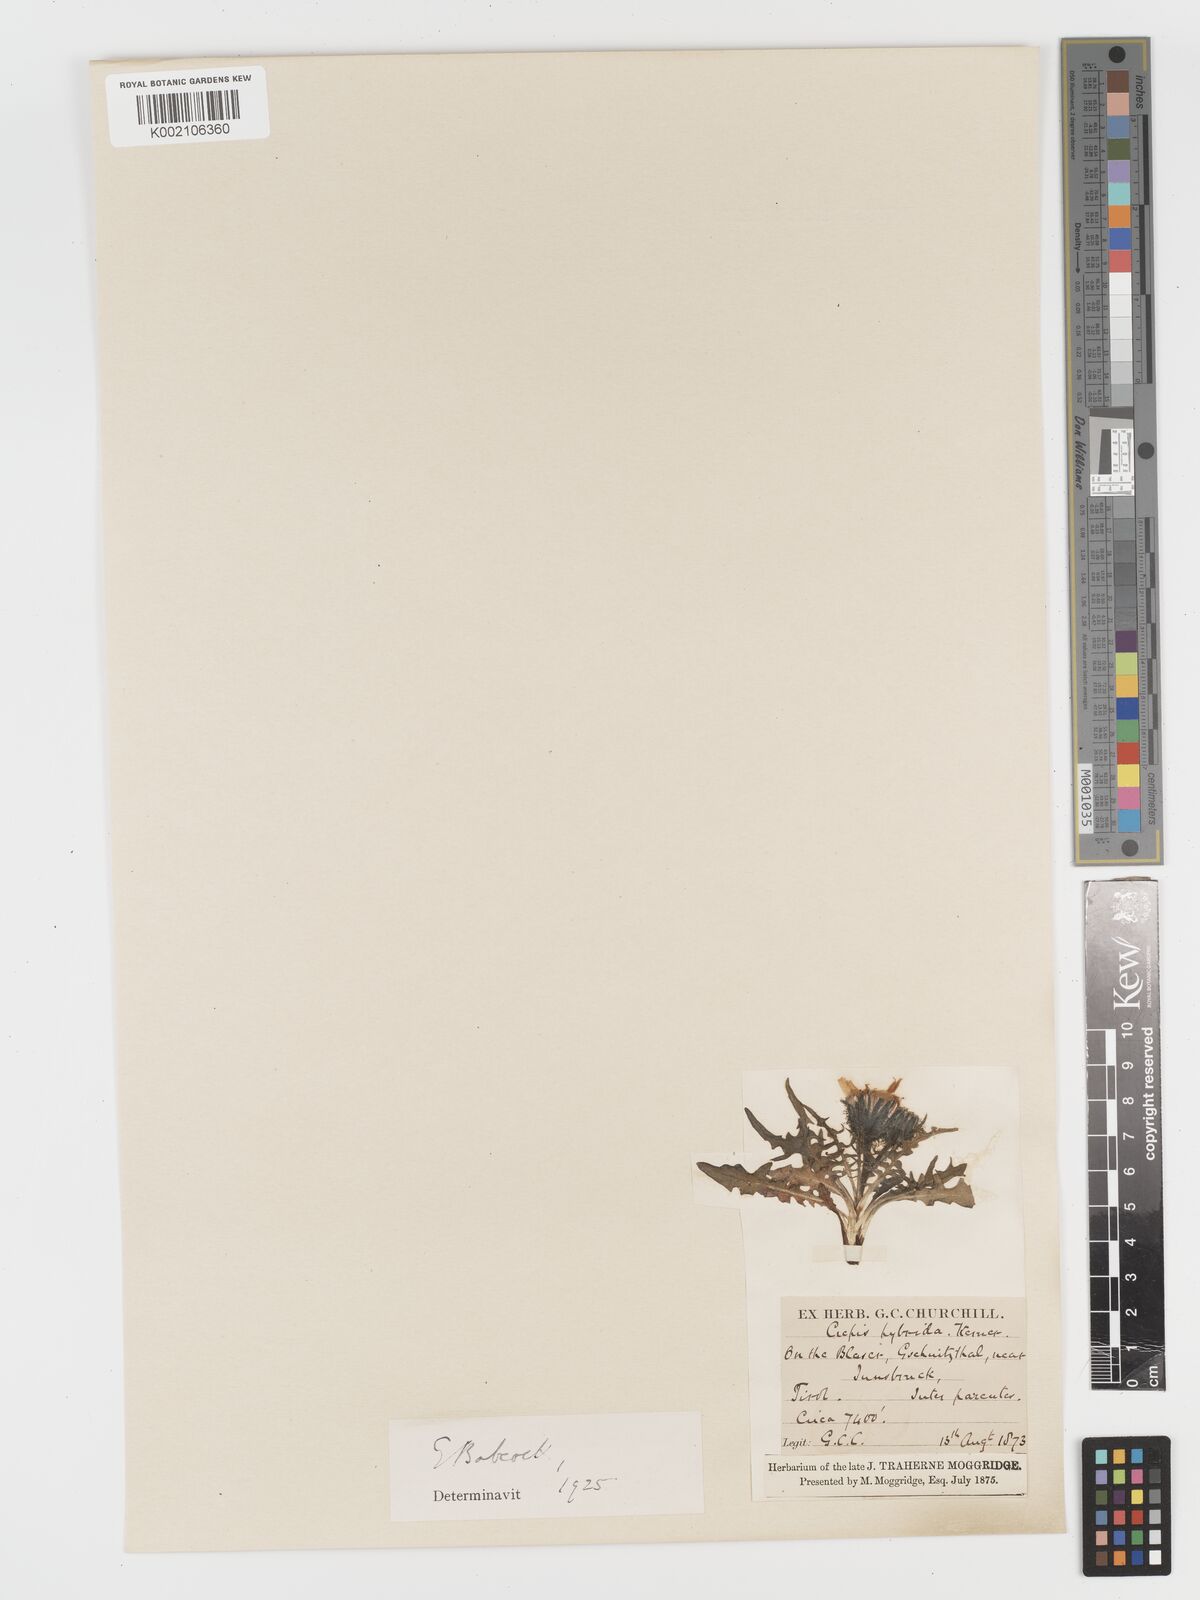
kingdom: Plantae
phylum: Tracheophyta
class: Magnoliopsida
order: Asterales
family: Asteraceae
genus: Crepis
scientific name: Crepis hybrida
